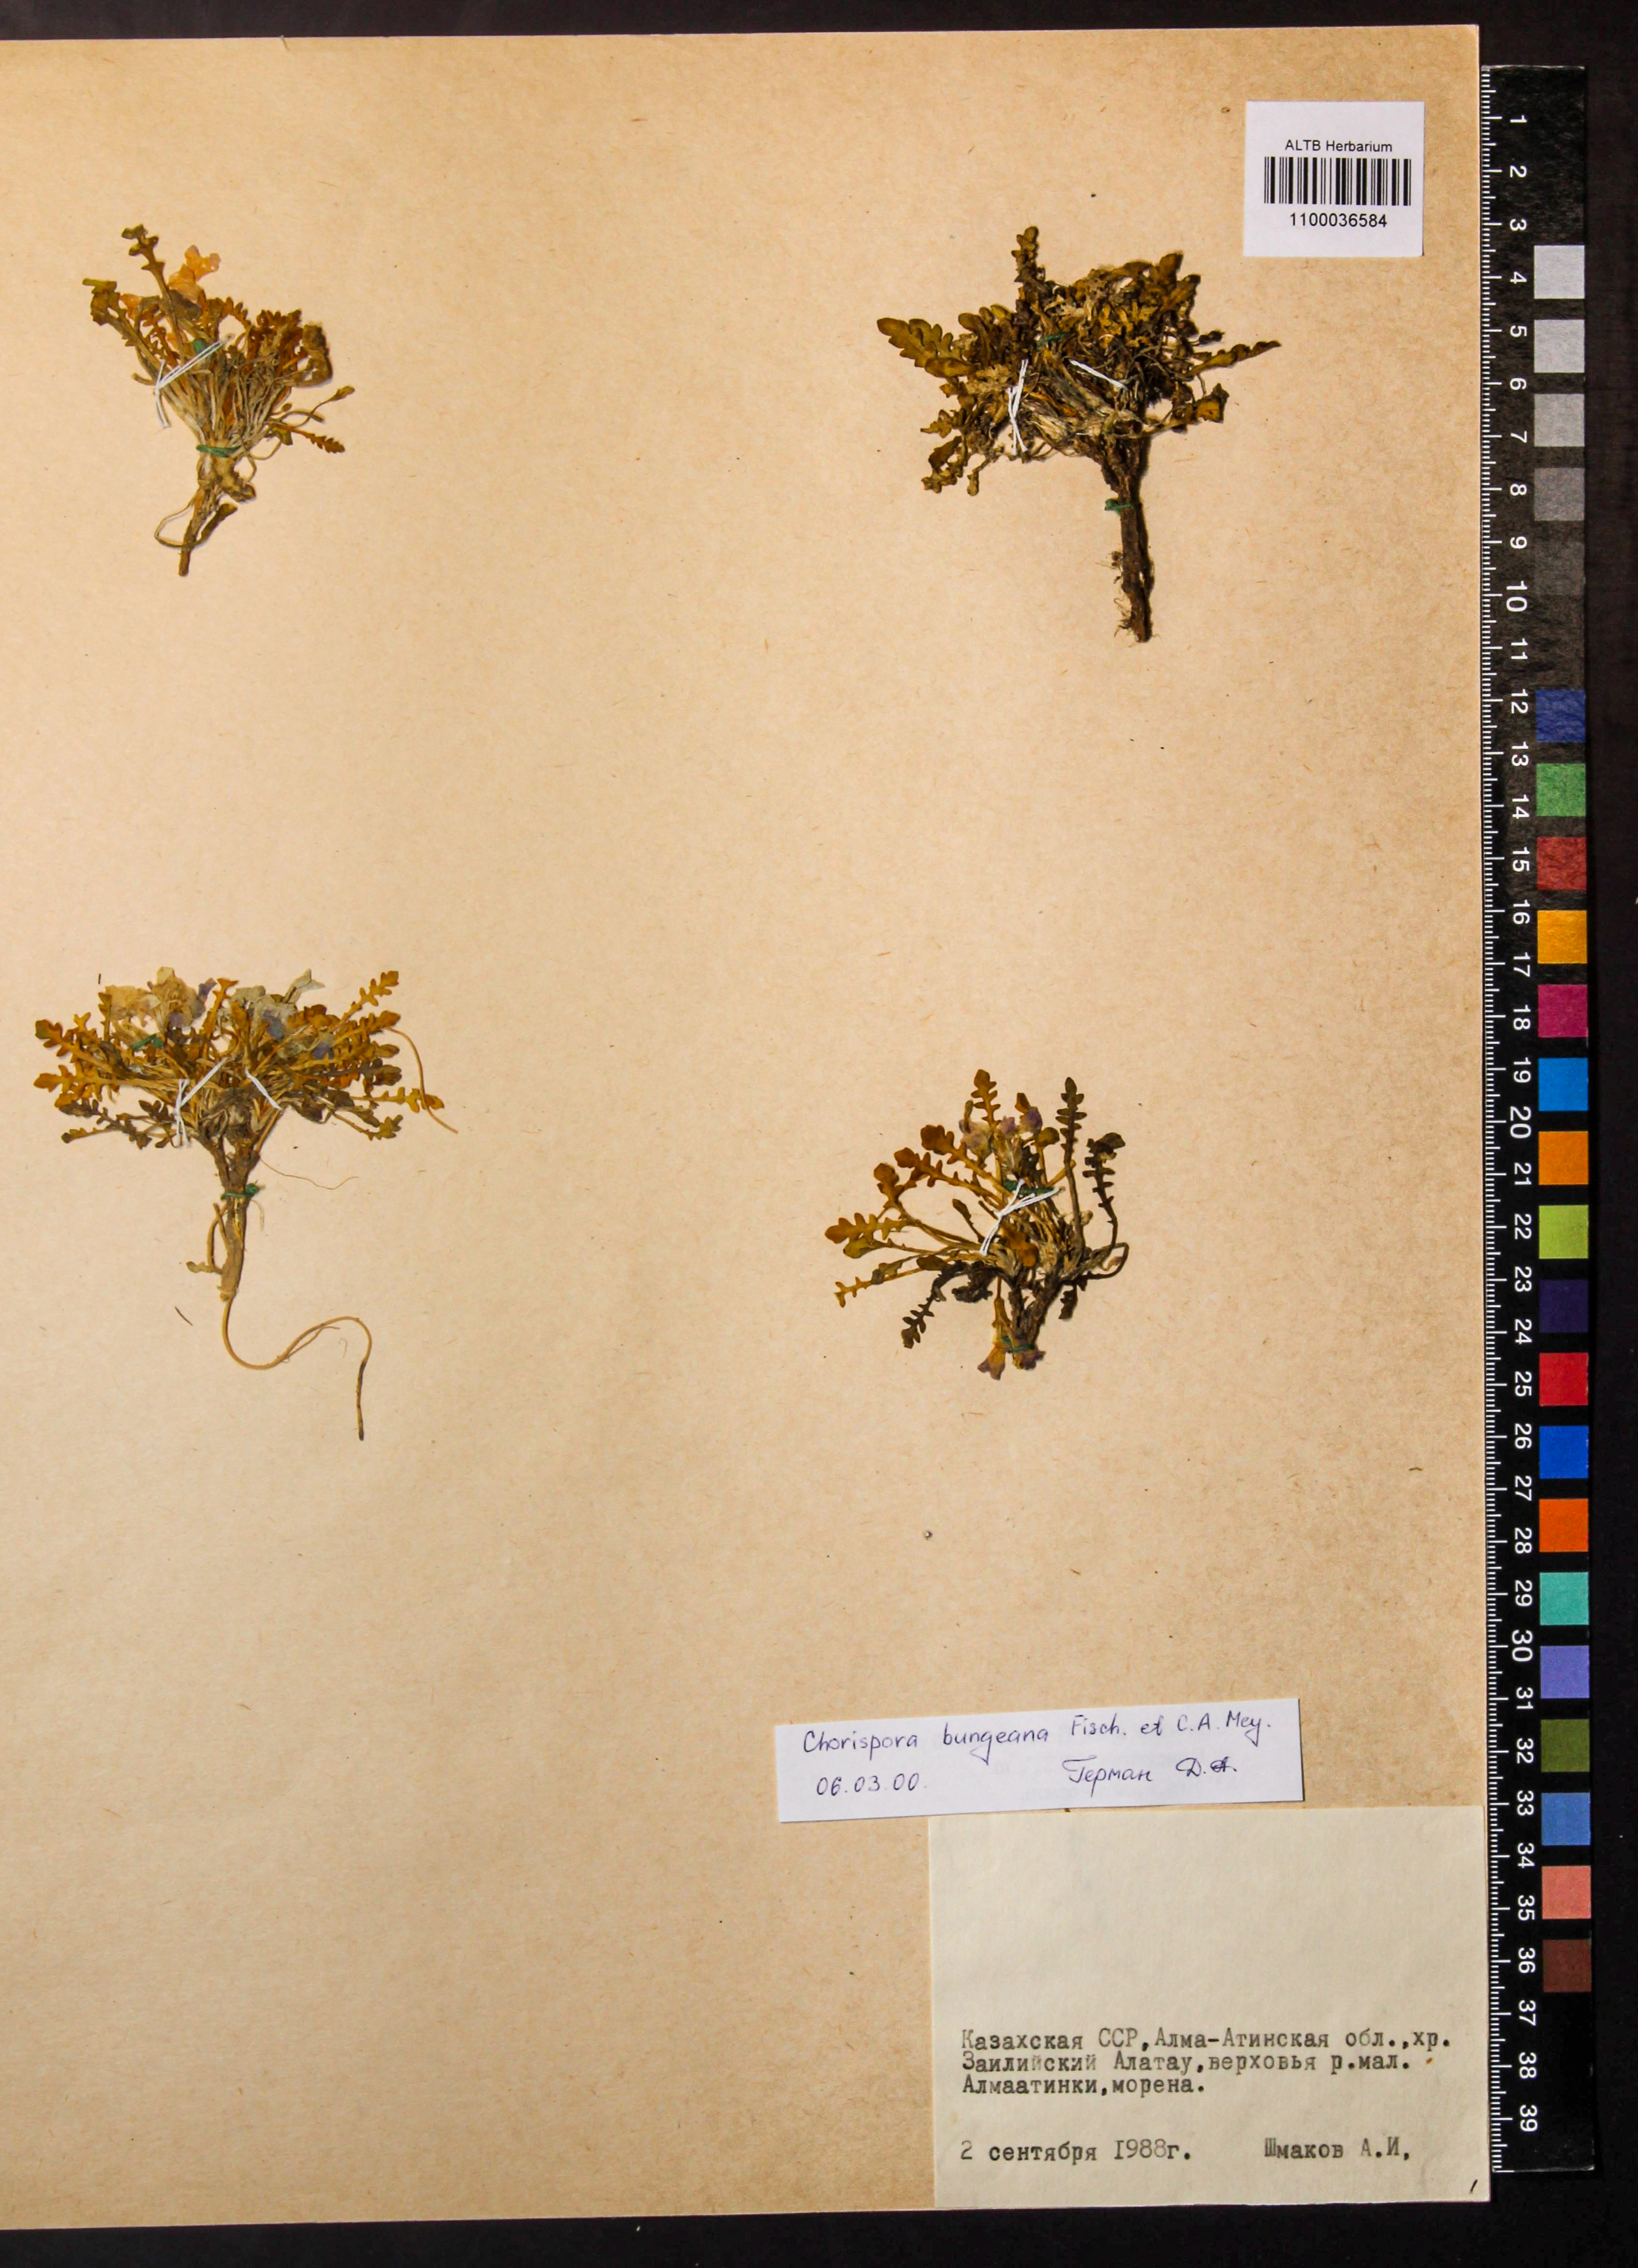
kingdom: Plantae
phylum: Tracheophyta
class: Magnoliopsida
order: Brassicales
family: Brassicaceae
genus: Chorispora
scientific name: Chorispora bungeana
